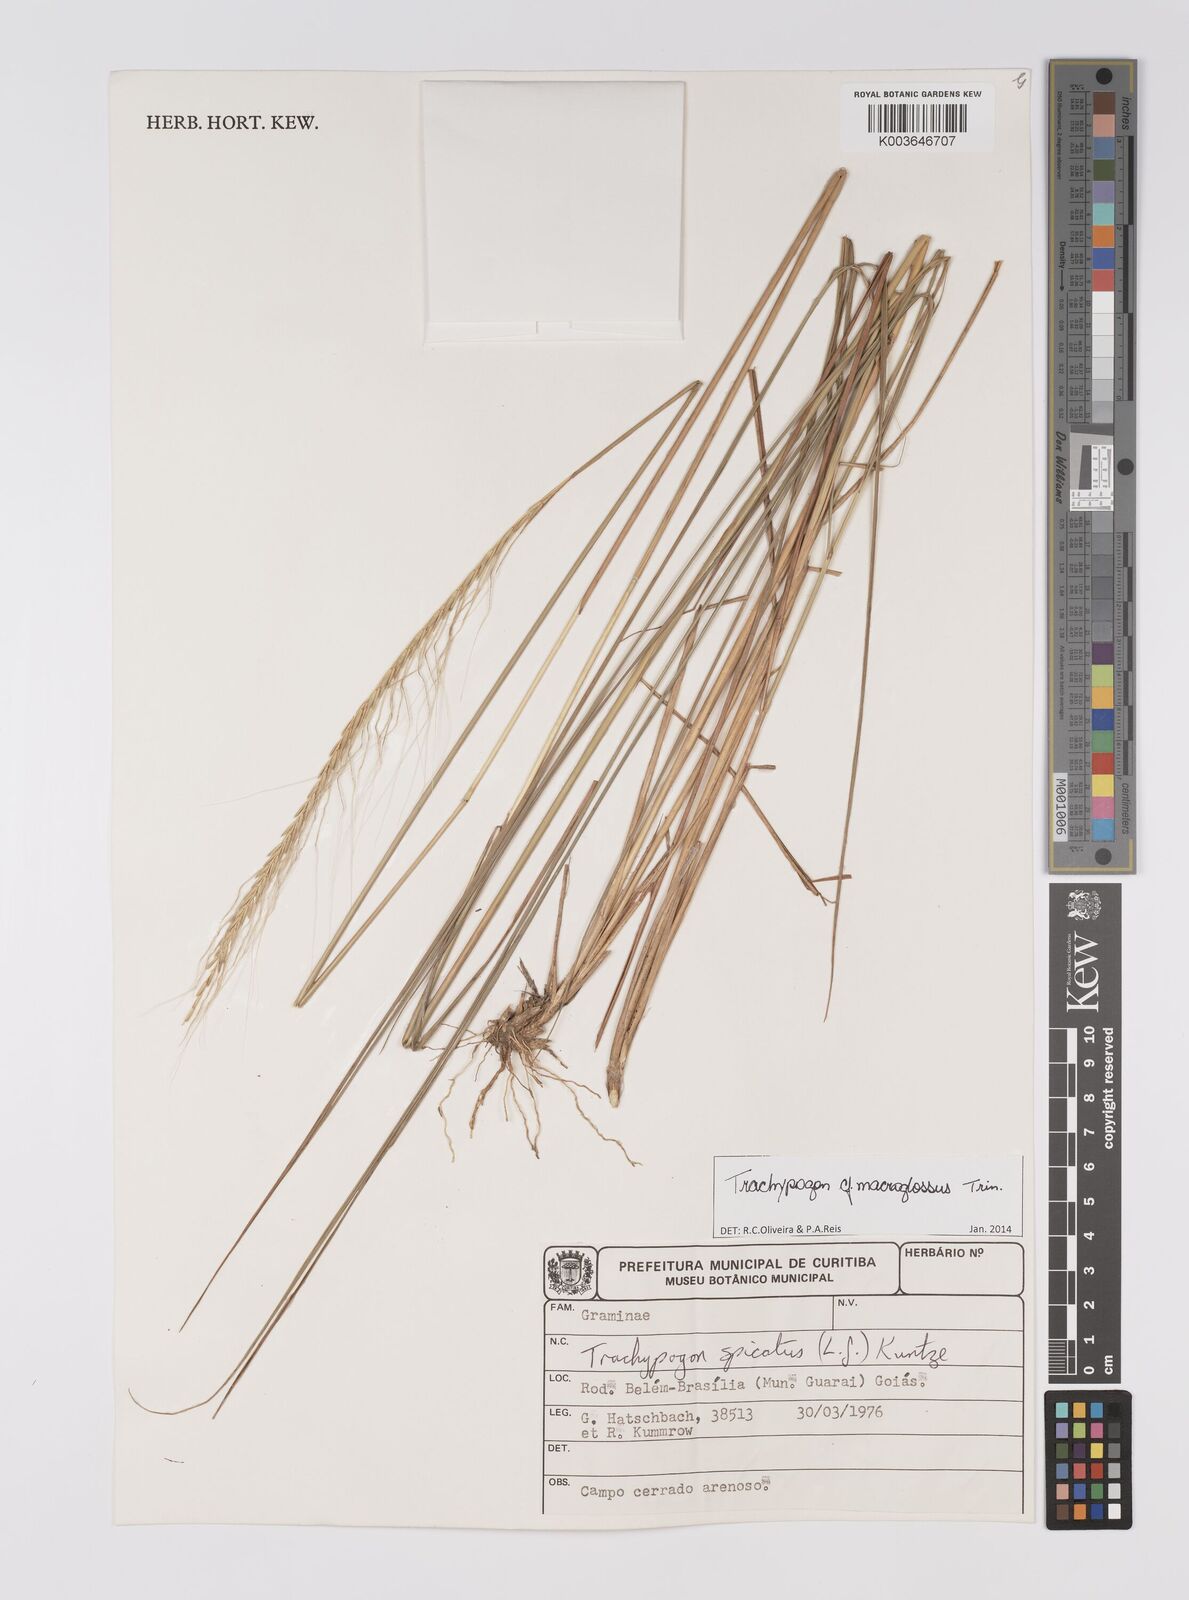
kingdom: Plantae
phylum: Tracheophyta
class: Liliopsida
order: Poales
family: Poaceae
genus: Trachypogon
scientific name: Trachypogon macroglossus
